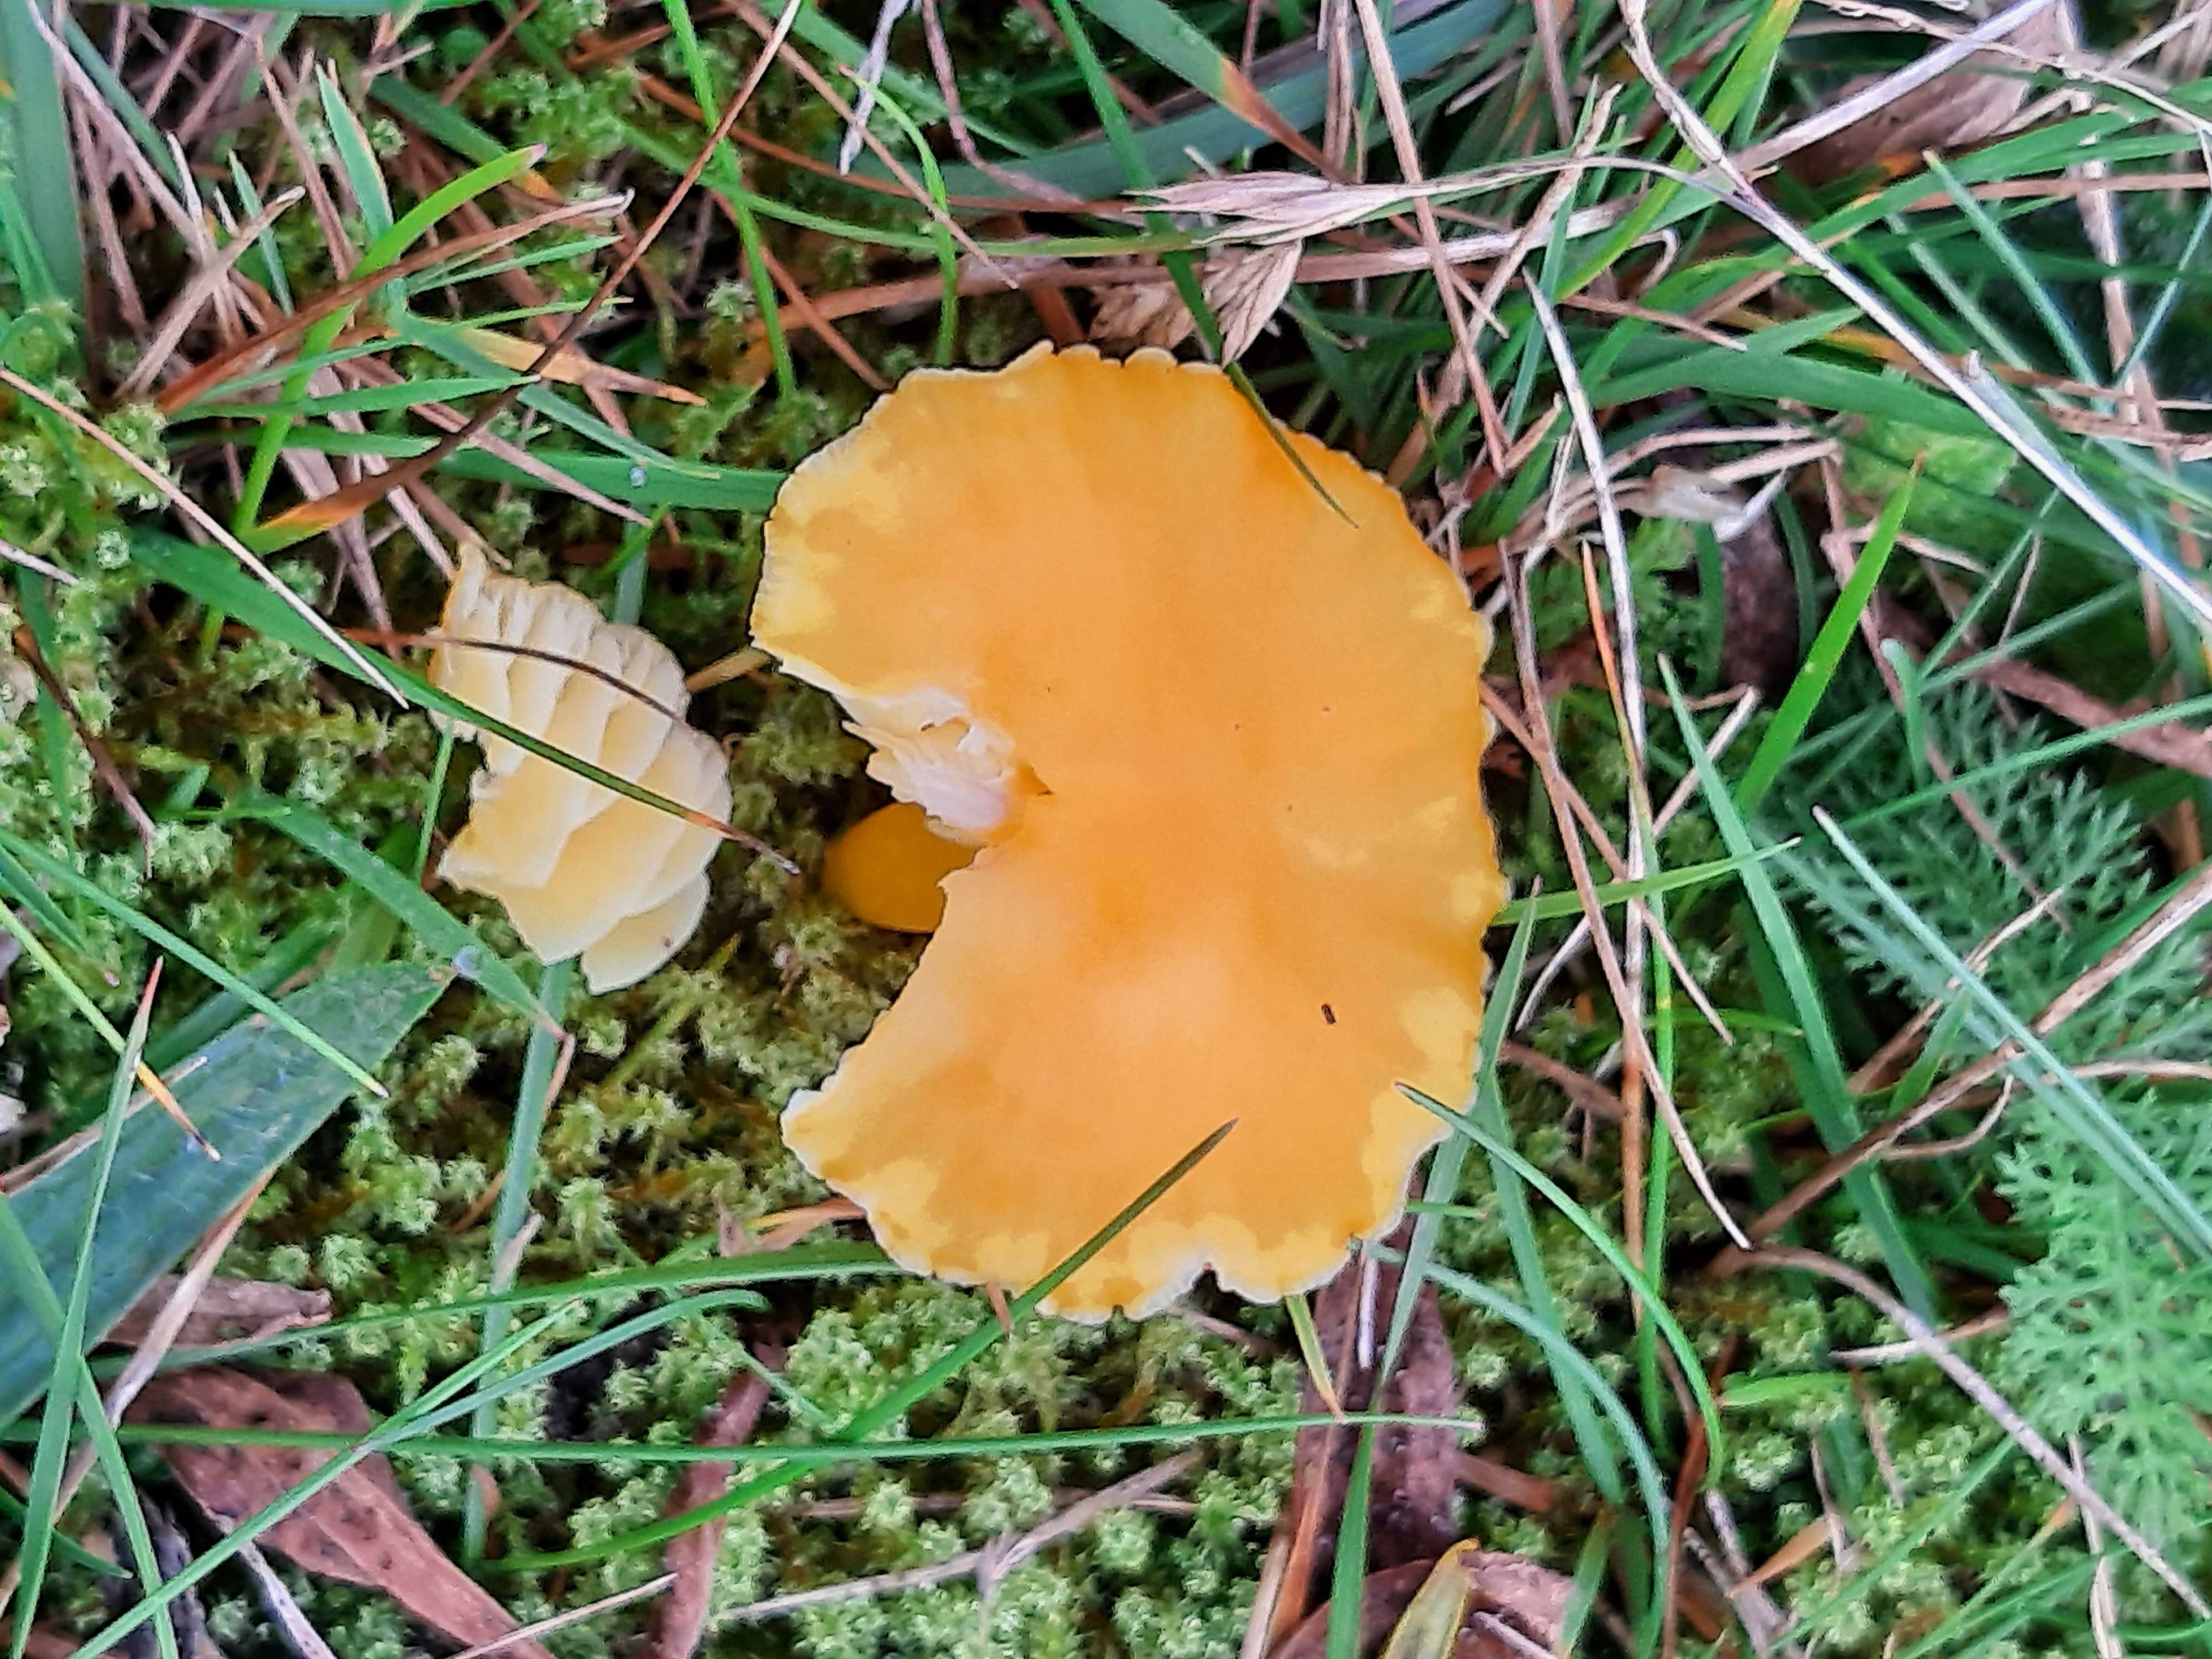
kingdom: Fungi
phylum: Basidiomycota
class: Agaricomycetes
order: Agaricales
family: Hygrophoraceae
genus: Hygrocybe
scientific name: Hygrocybe ceracea
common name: voksgul vokshat
